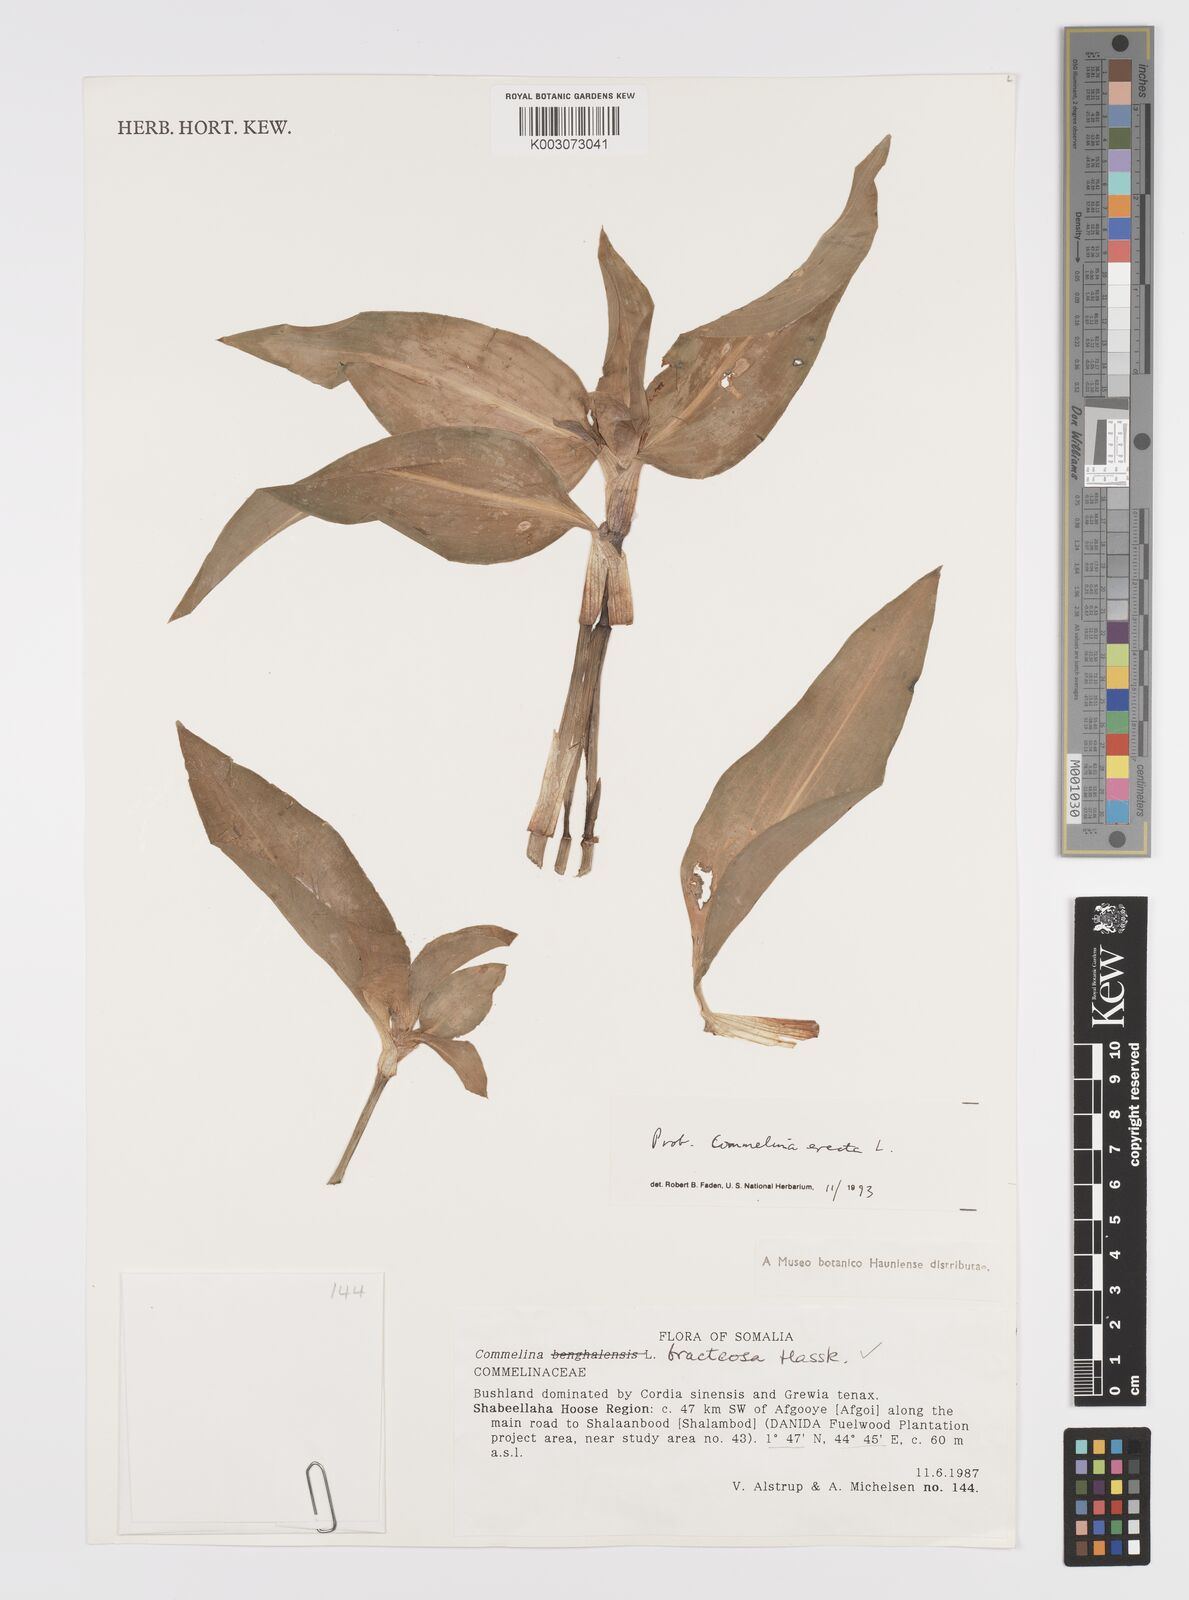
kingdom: Plantae
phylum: Tracheophyta
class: Liliopsida
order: Commelinales
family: Commelinaceae
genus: Commelina
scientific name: Commelina erecta
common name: Blousel blommetjie
